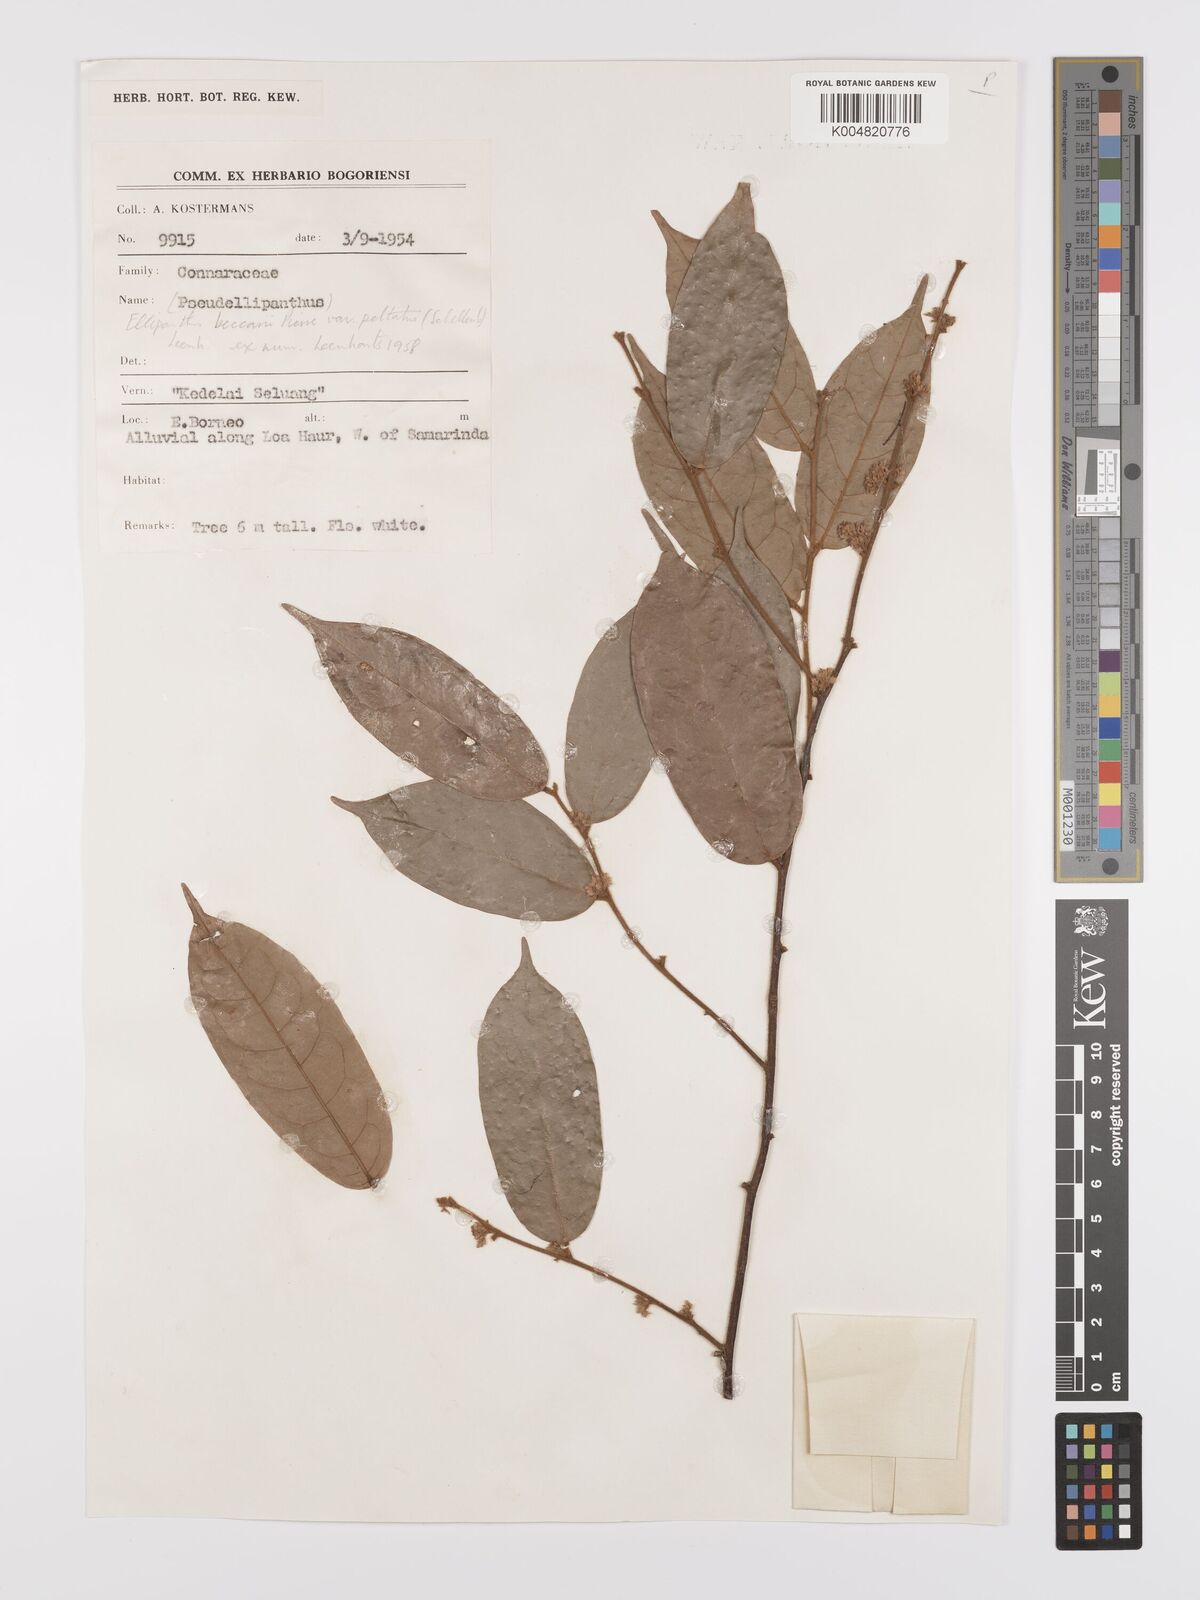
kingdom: Plantae
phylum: Tracheophyta
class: Magnoliopsida
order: Oxalidales
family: Connaraceae
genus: Ellipanthus
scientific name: Ellipanthus beccarii
